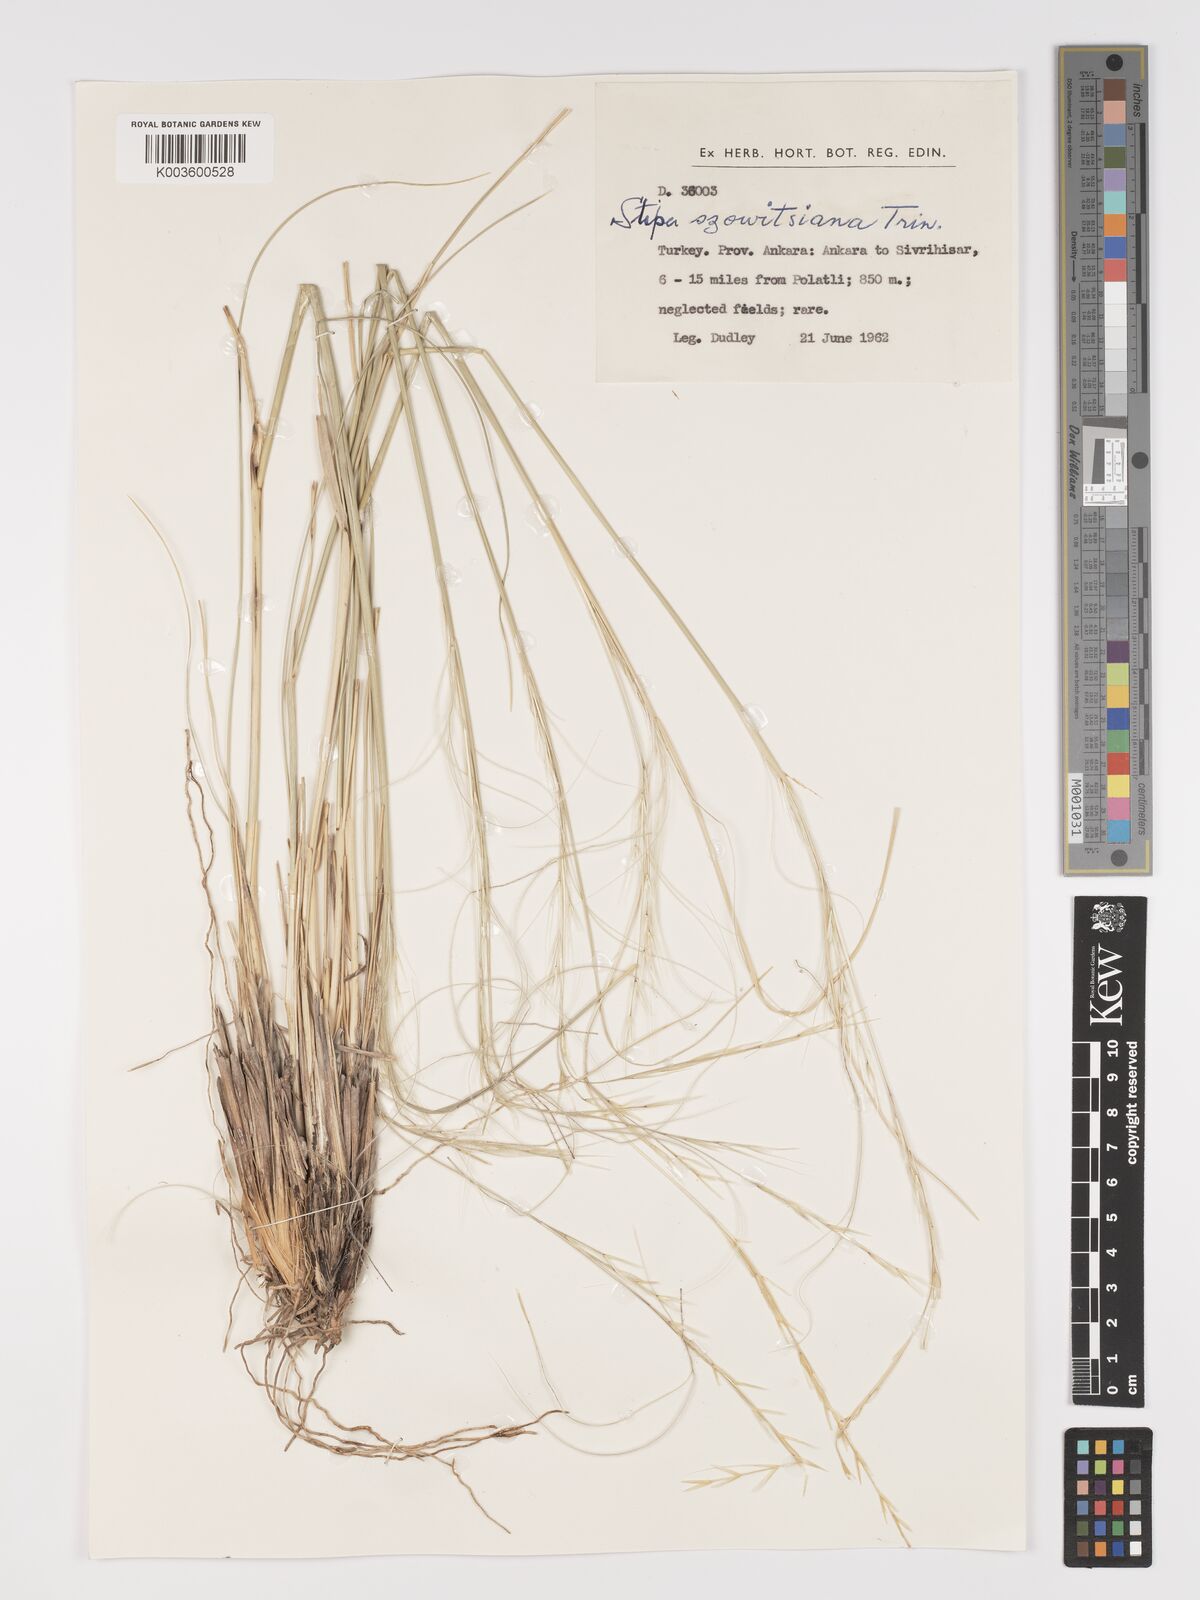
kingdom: Plantae
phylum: Tracheophyta
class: Liliopsida
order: Poales
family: Poaceae
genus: Stipa
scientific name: Stipa barbata
